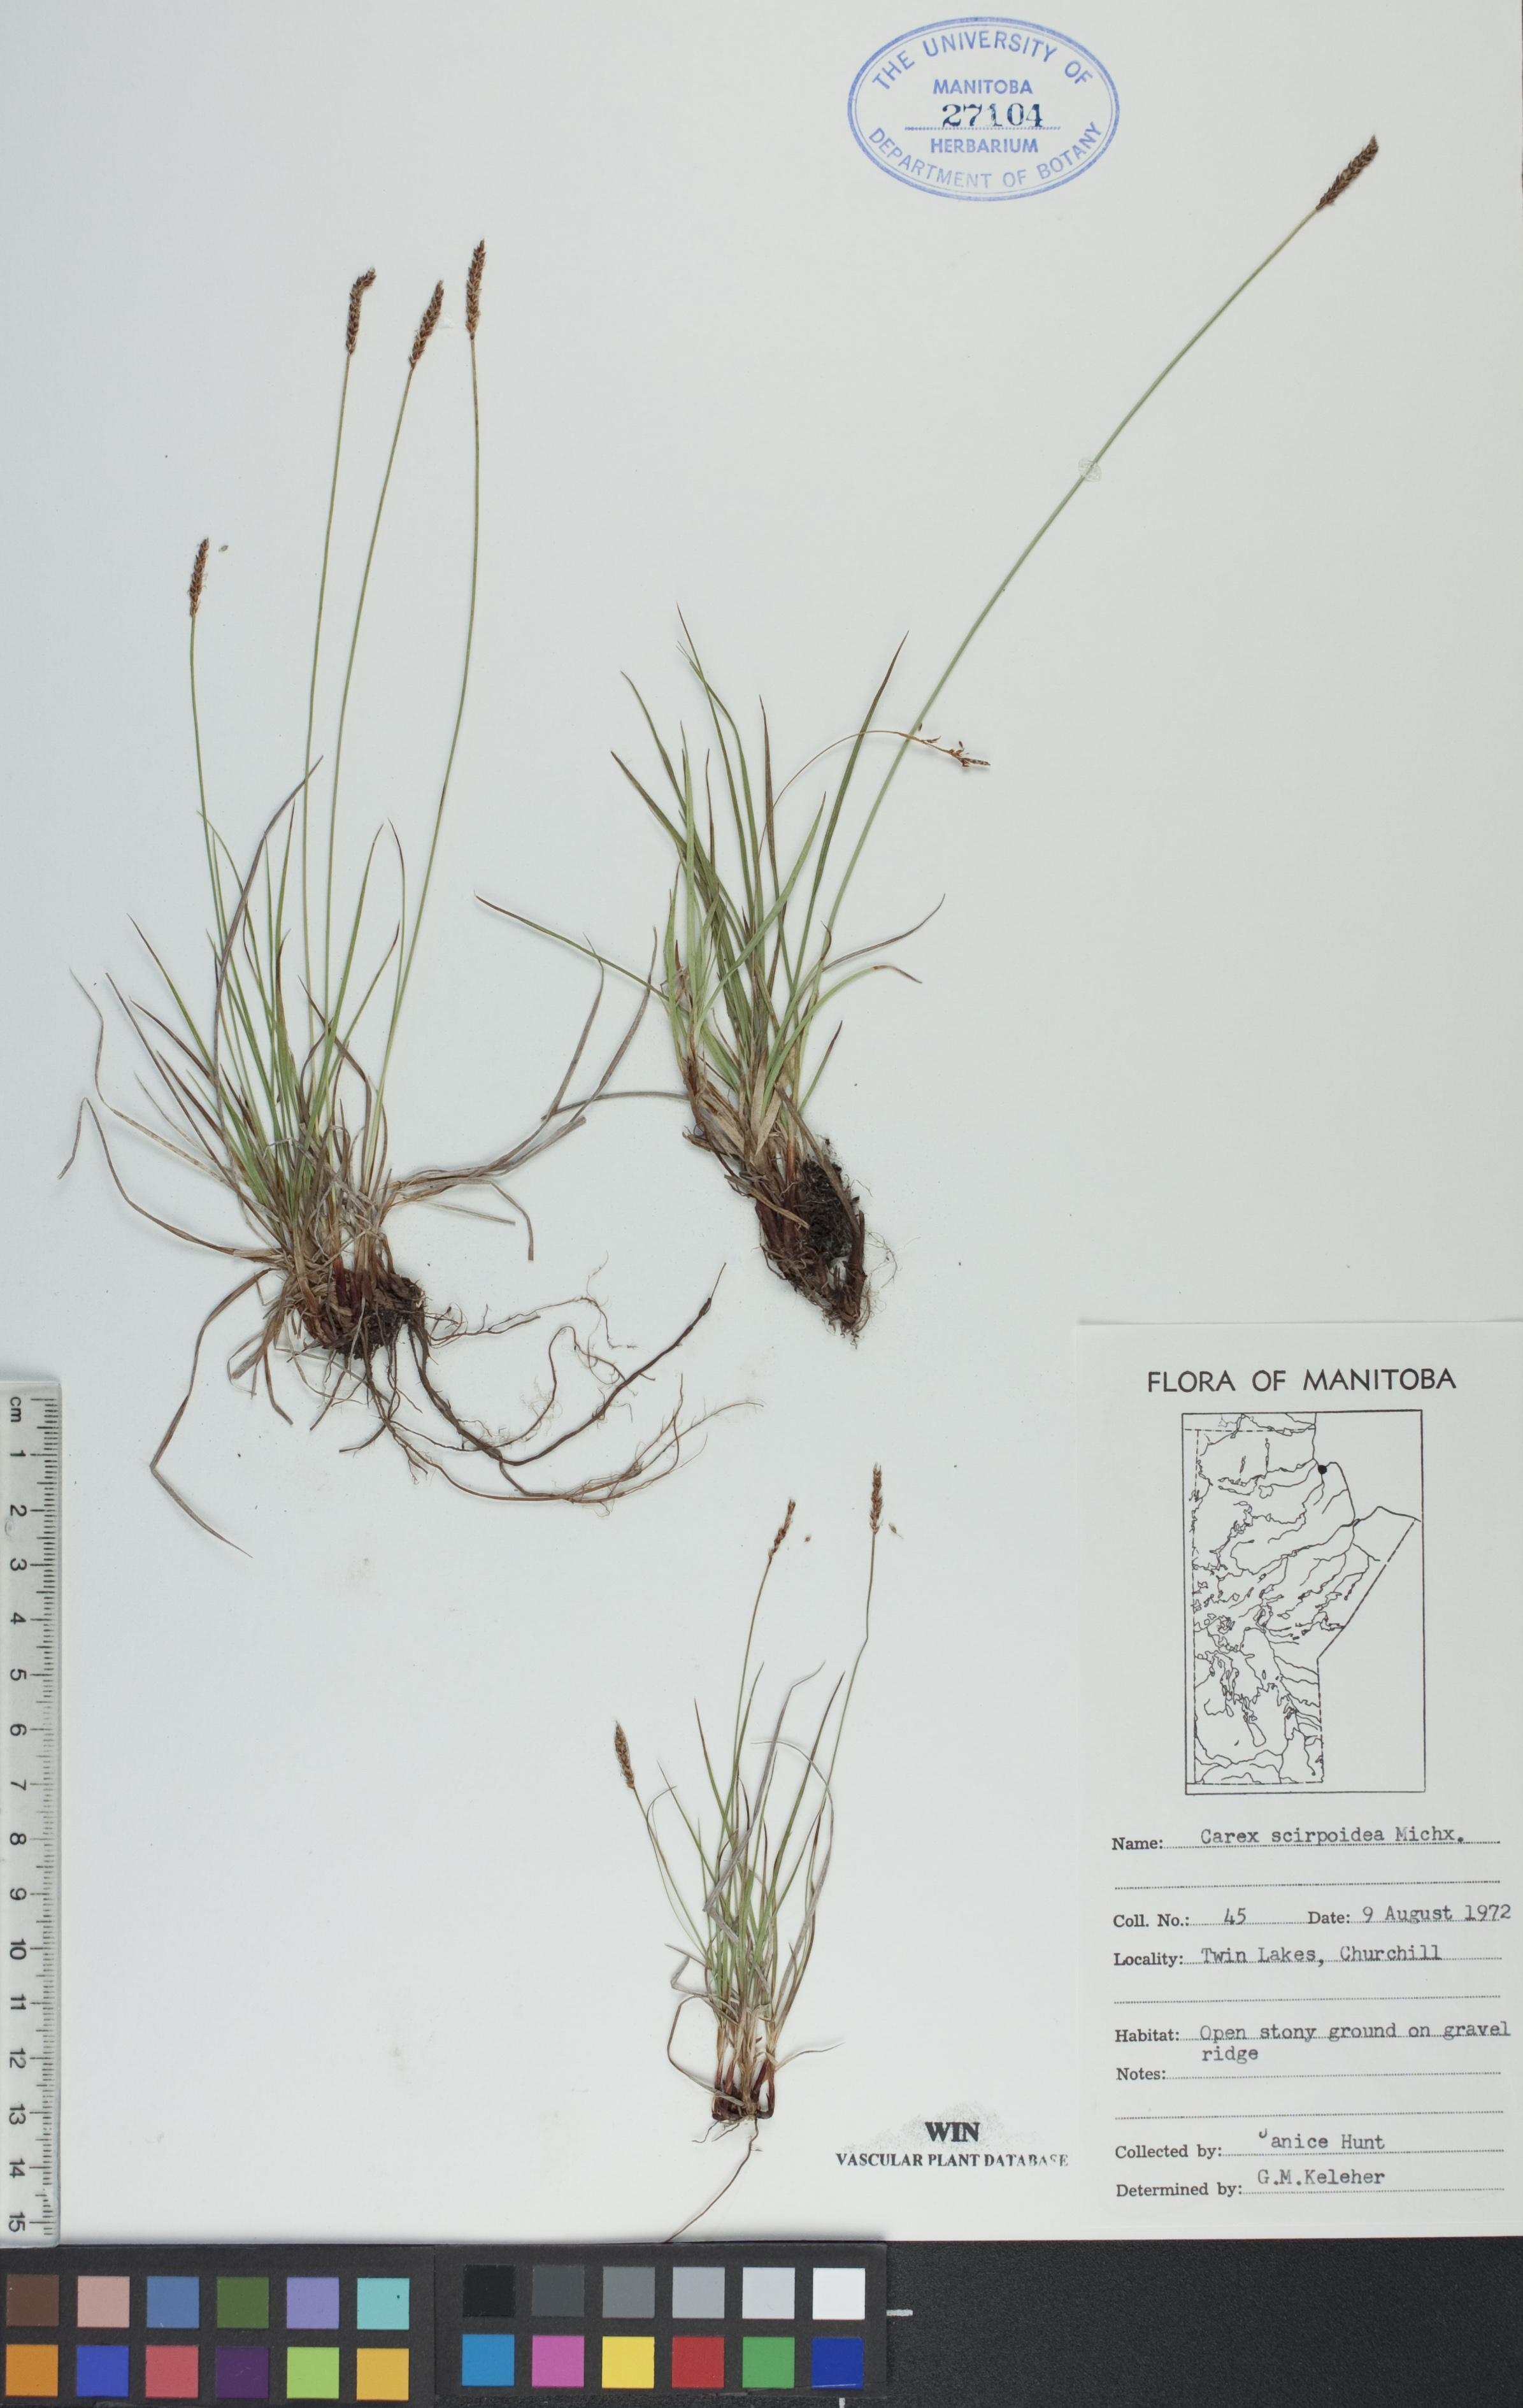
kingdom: Plantae
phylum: Tracheophyta
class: Liliopsida
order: Poales
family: Cyperaceae
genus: Carex
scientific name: Carex scirpoidea
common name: Canada single-spike sedge
